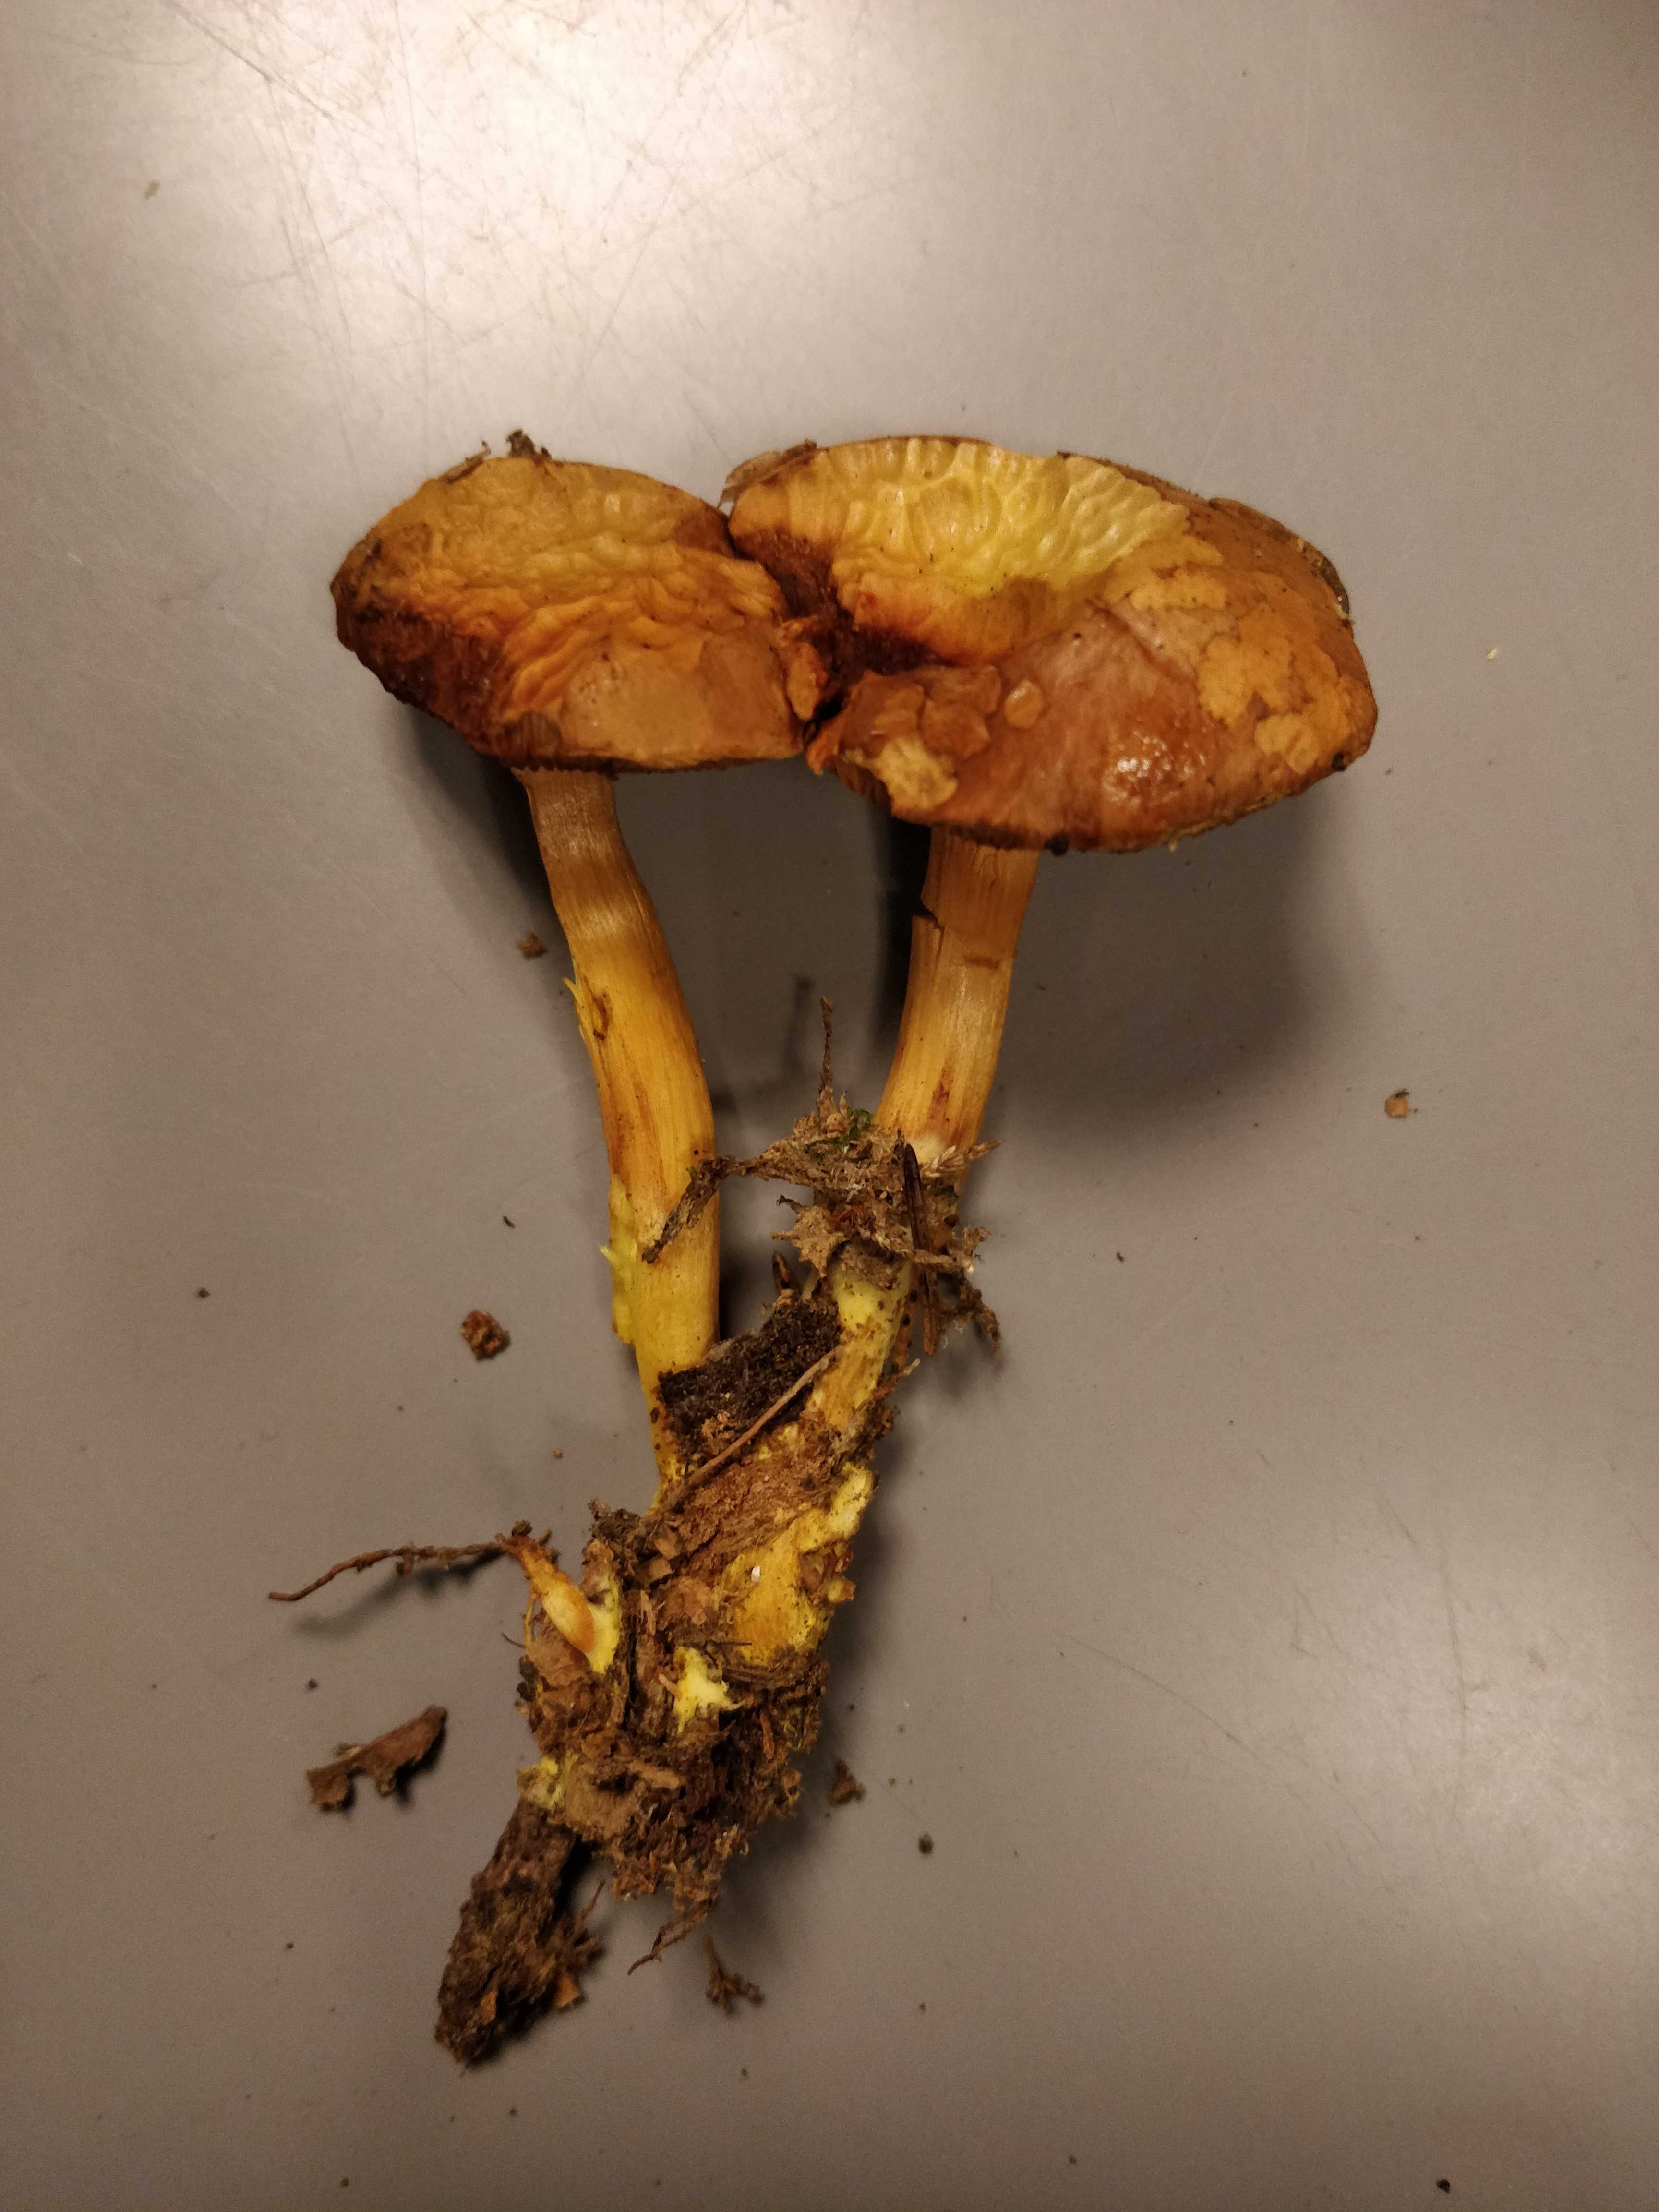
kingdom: Fungi
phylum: Basidiomycota
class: Agaricomycetes
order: Boletales
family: Boletaceae
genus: Chalciporus
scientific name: Chalciporus piperatus
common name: peberrørhat
